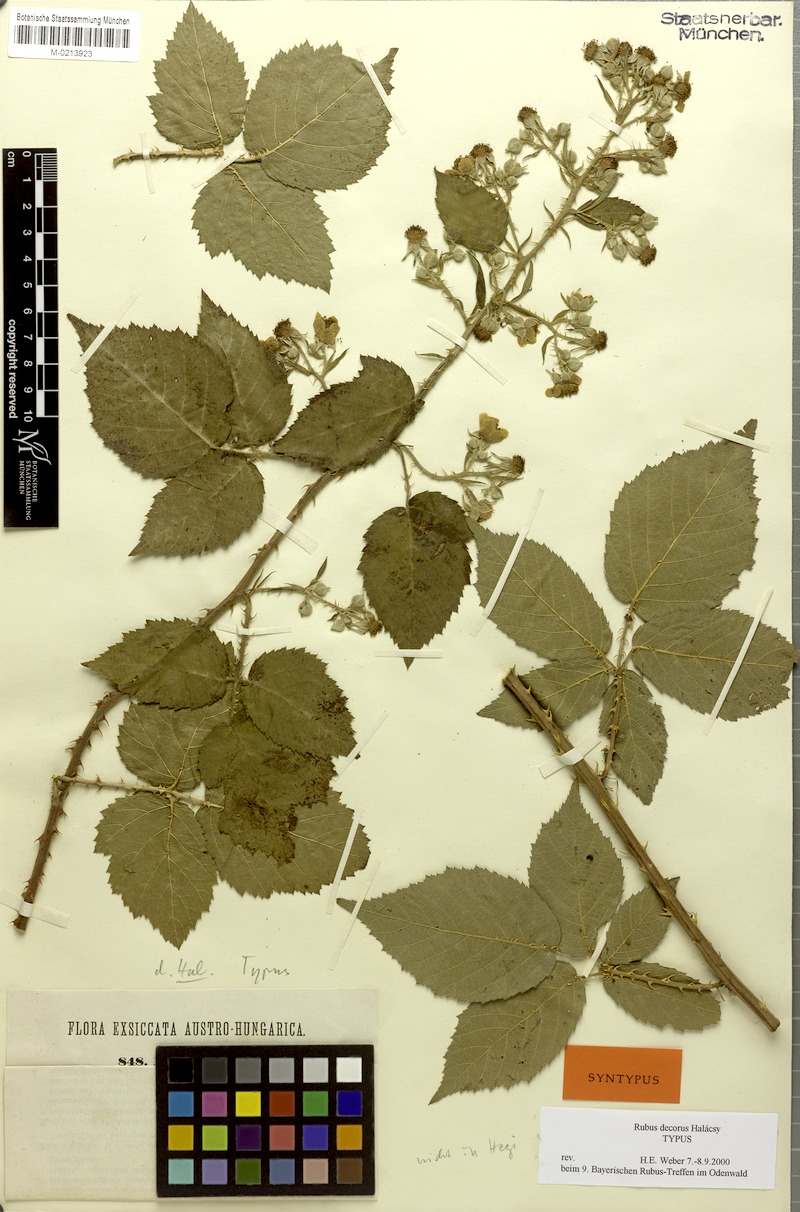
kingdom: Plantae
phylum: Tracheophyta
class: Magnoliopsida
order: Rosales
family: Rosaceae
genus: Rubus
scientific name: Rubus decorus
